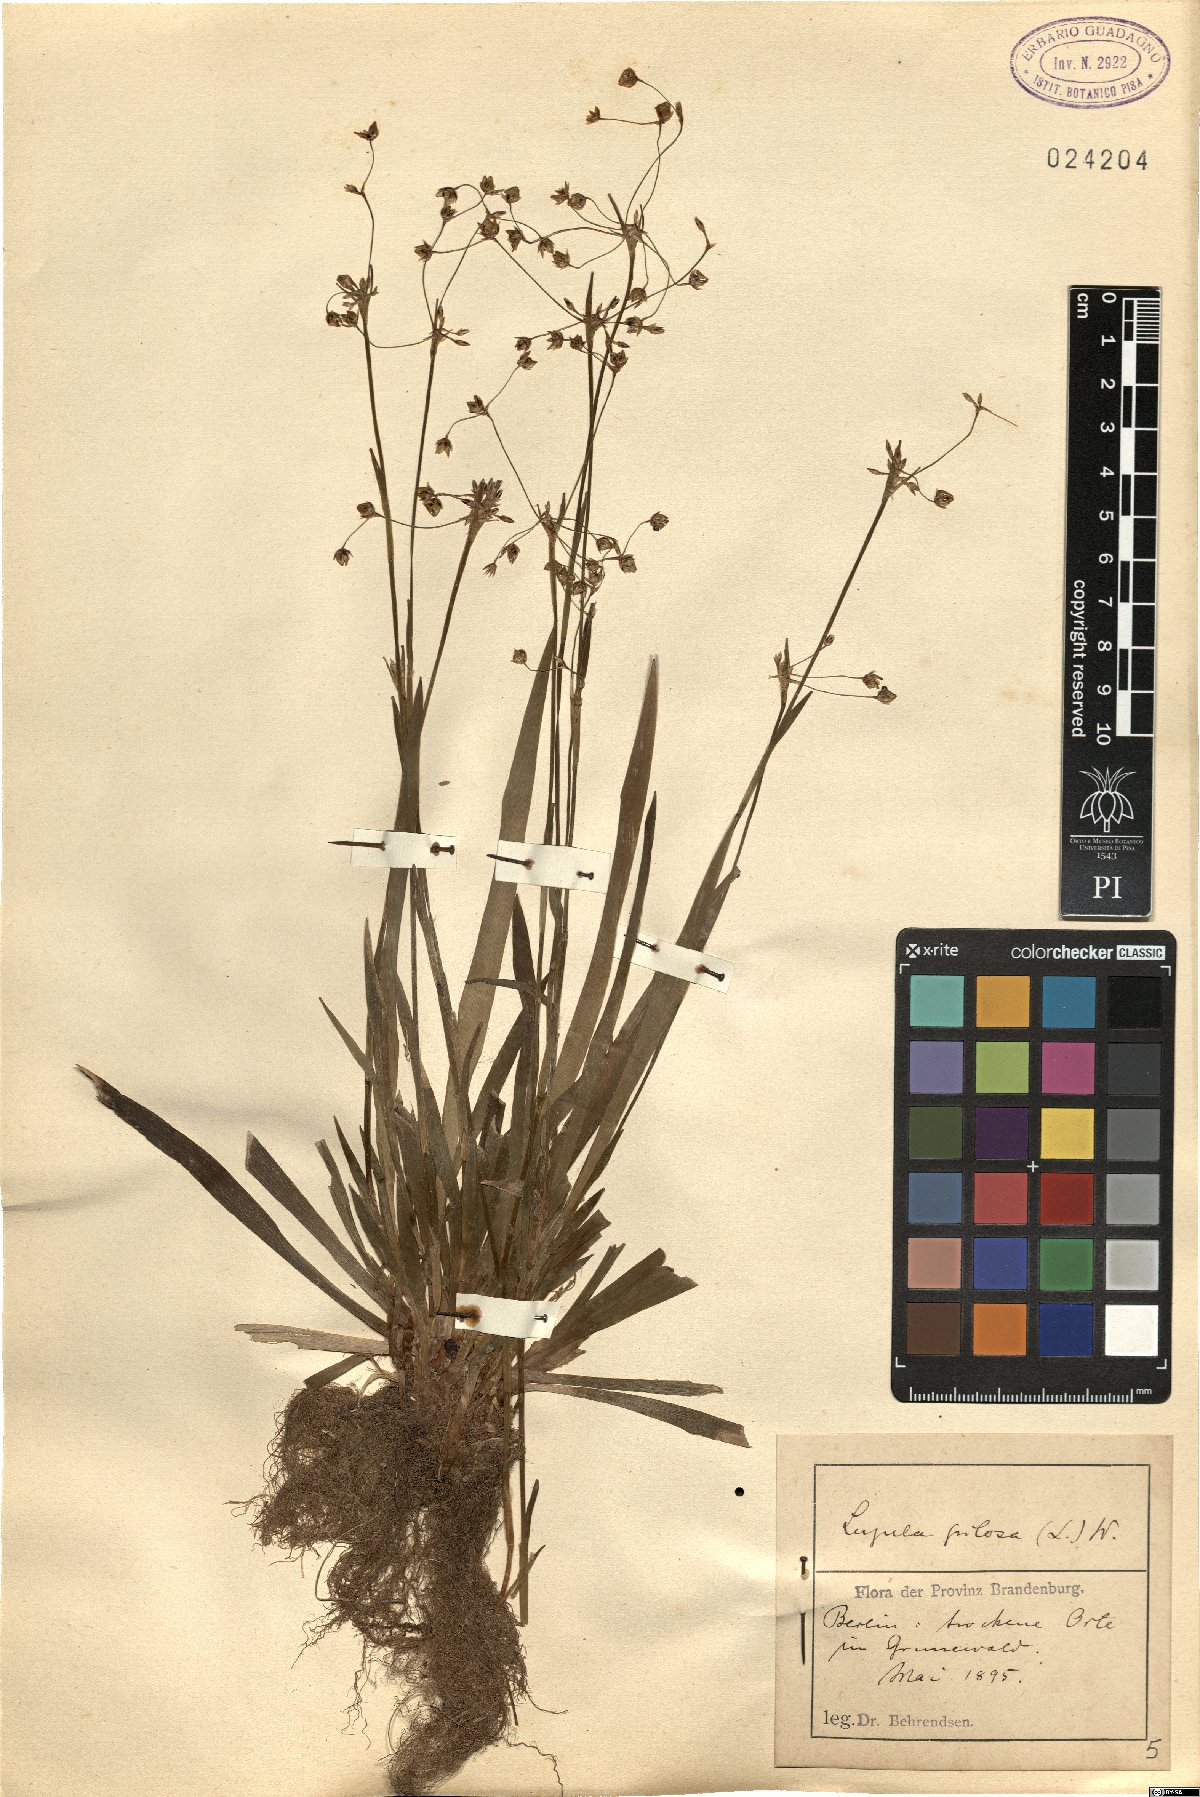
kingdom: Plantae
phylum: Tracheophyta
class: Liliopsida
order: Poales
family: Juncaceae
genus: Luzula
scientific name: Luzula pilosa
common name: Hairy wood-rush
